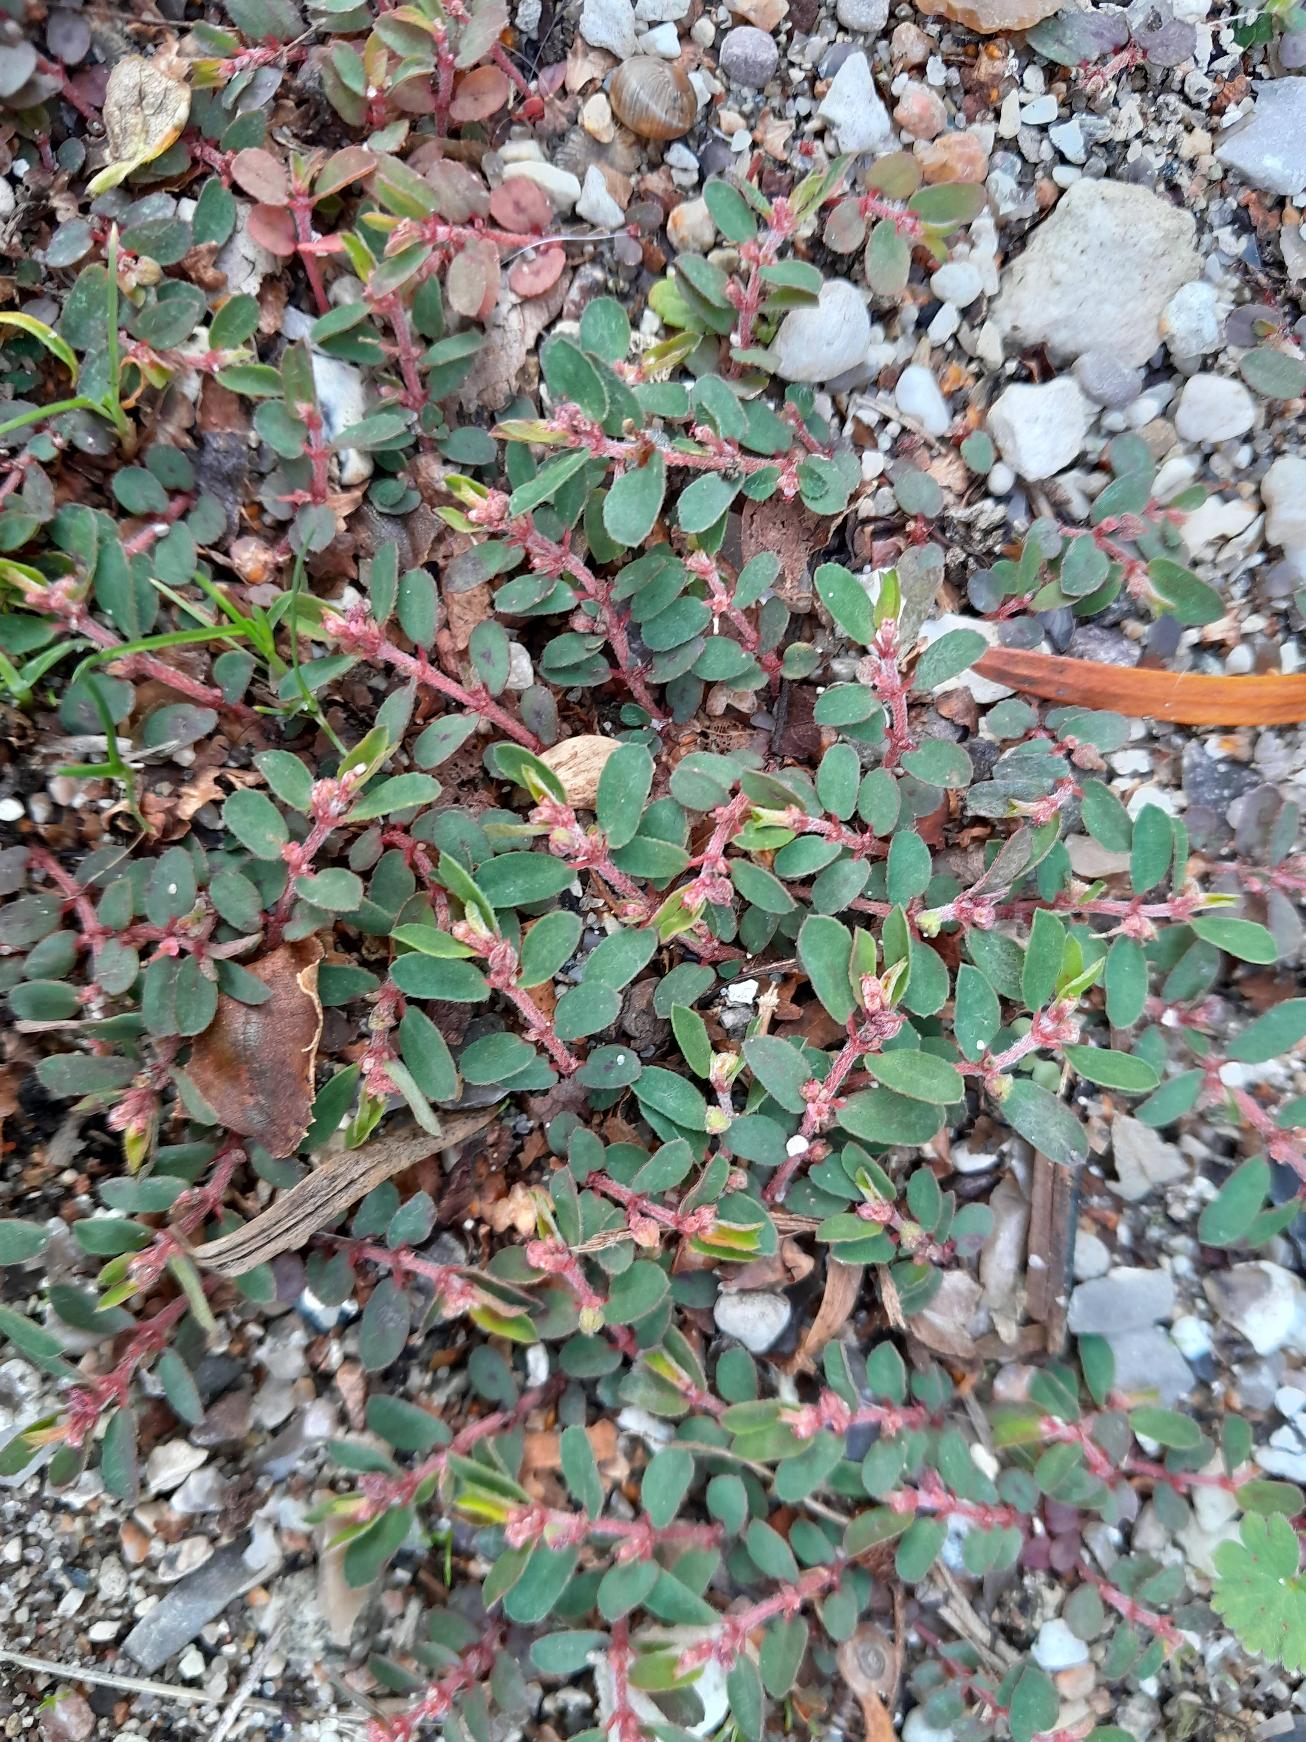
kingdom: Plantae
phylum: Tracheophyta
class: Magnoliopsida
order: Malpighiales
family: Euphorbiaceae
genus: Euphorbia
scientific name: Euphorbia maculata
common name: Plet-vortemælk
